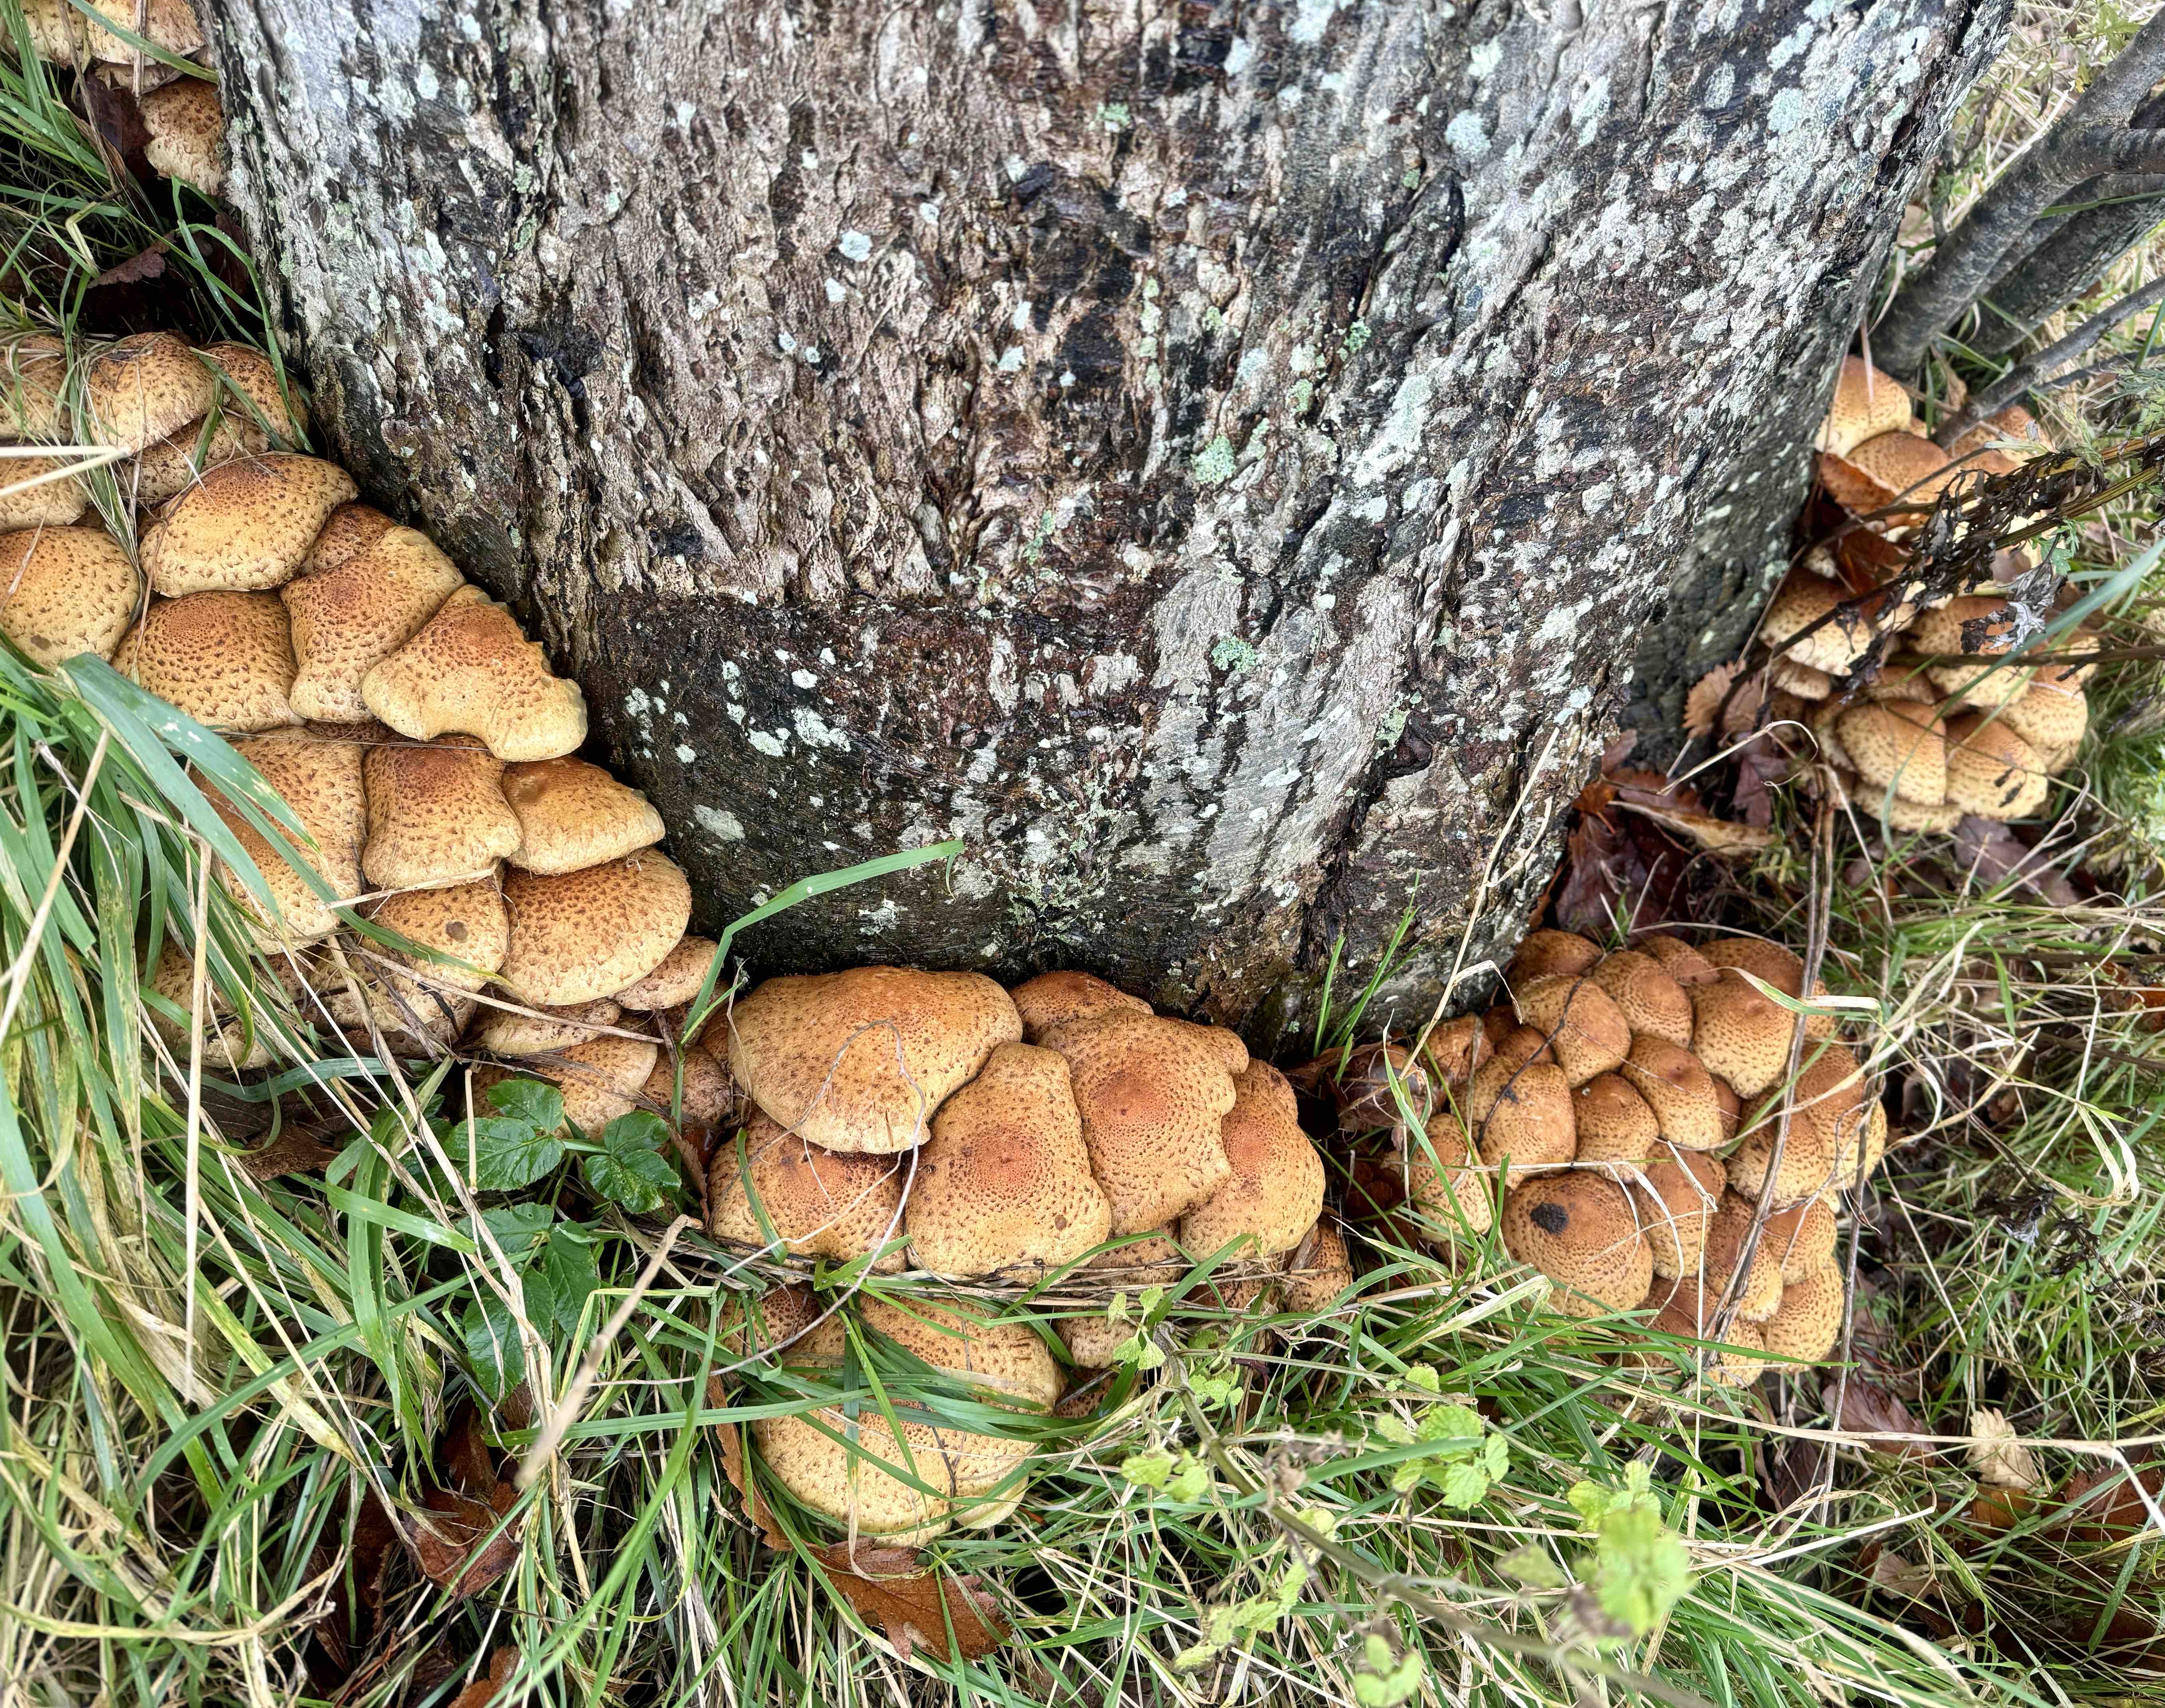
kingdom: Fungi
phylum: Basidiomycota
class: Agaricomycetes
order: Agaricales
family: Strophariaceae
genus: Pholiota
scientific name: Pholiota squarrosa
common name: krumskællet skælhat
